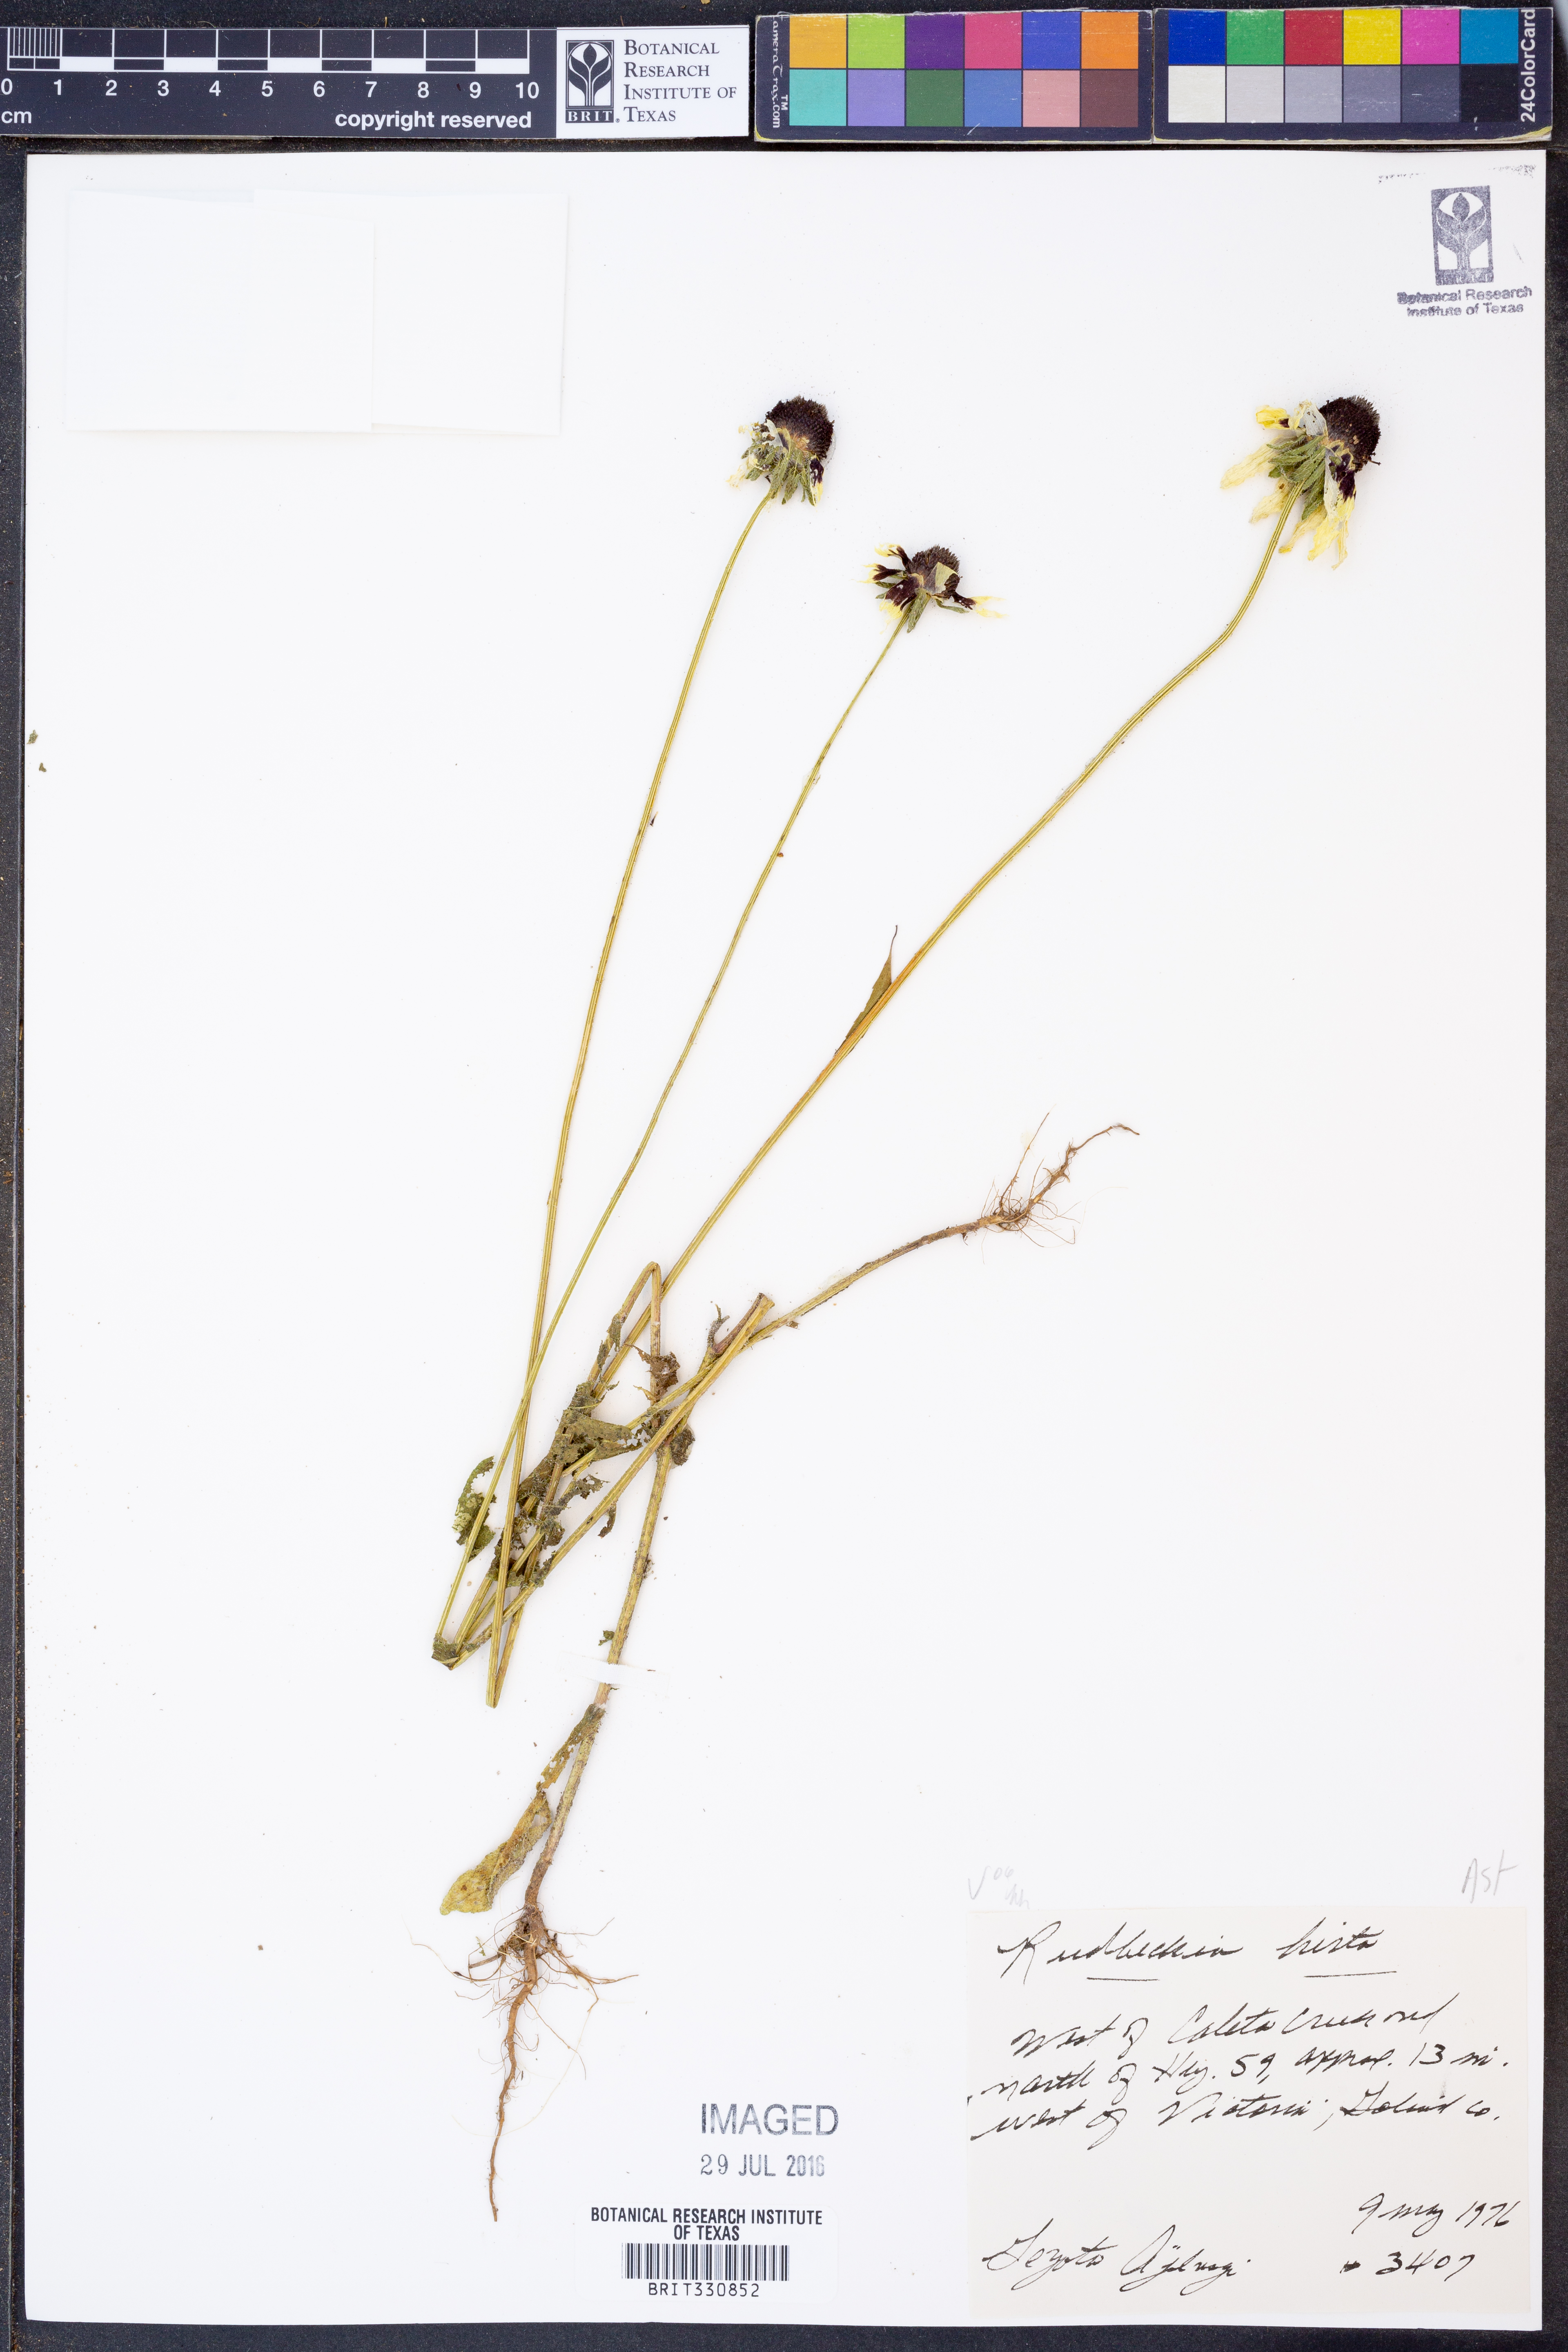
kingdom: Plantae
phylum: Tracheophyta
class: Magnoliopsida
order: Asterales
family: Asteraceae
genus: Rudbeckia
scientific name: Rudbeckia hirta
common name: Black-eyed-susan
